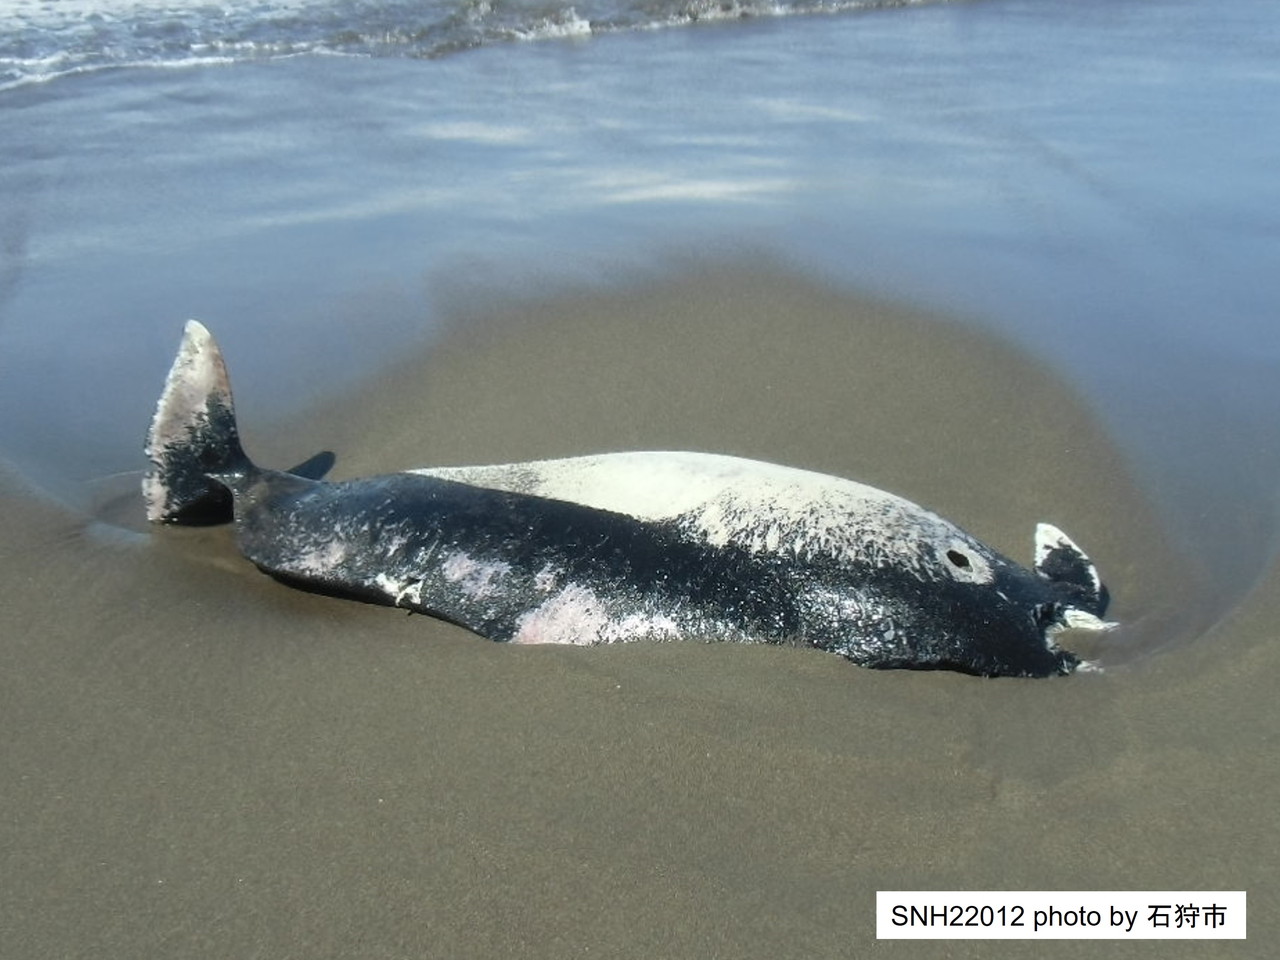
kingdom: Animalia
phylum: Chordata
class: Mammalia
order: Cetacea
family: Phocoenidae
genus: Phocoenoides
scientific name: Phocoenoides dalli
